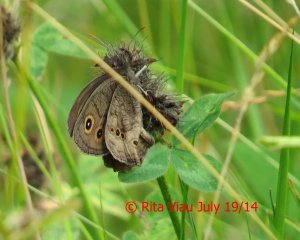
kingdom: Animalia
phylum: Arthropoda
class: Insecta
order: Lepidoptera
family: Nymphalidae
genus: Cercyonis
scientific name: Cercyonis pegala
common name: Common Wood-Nymph
